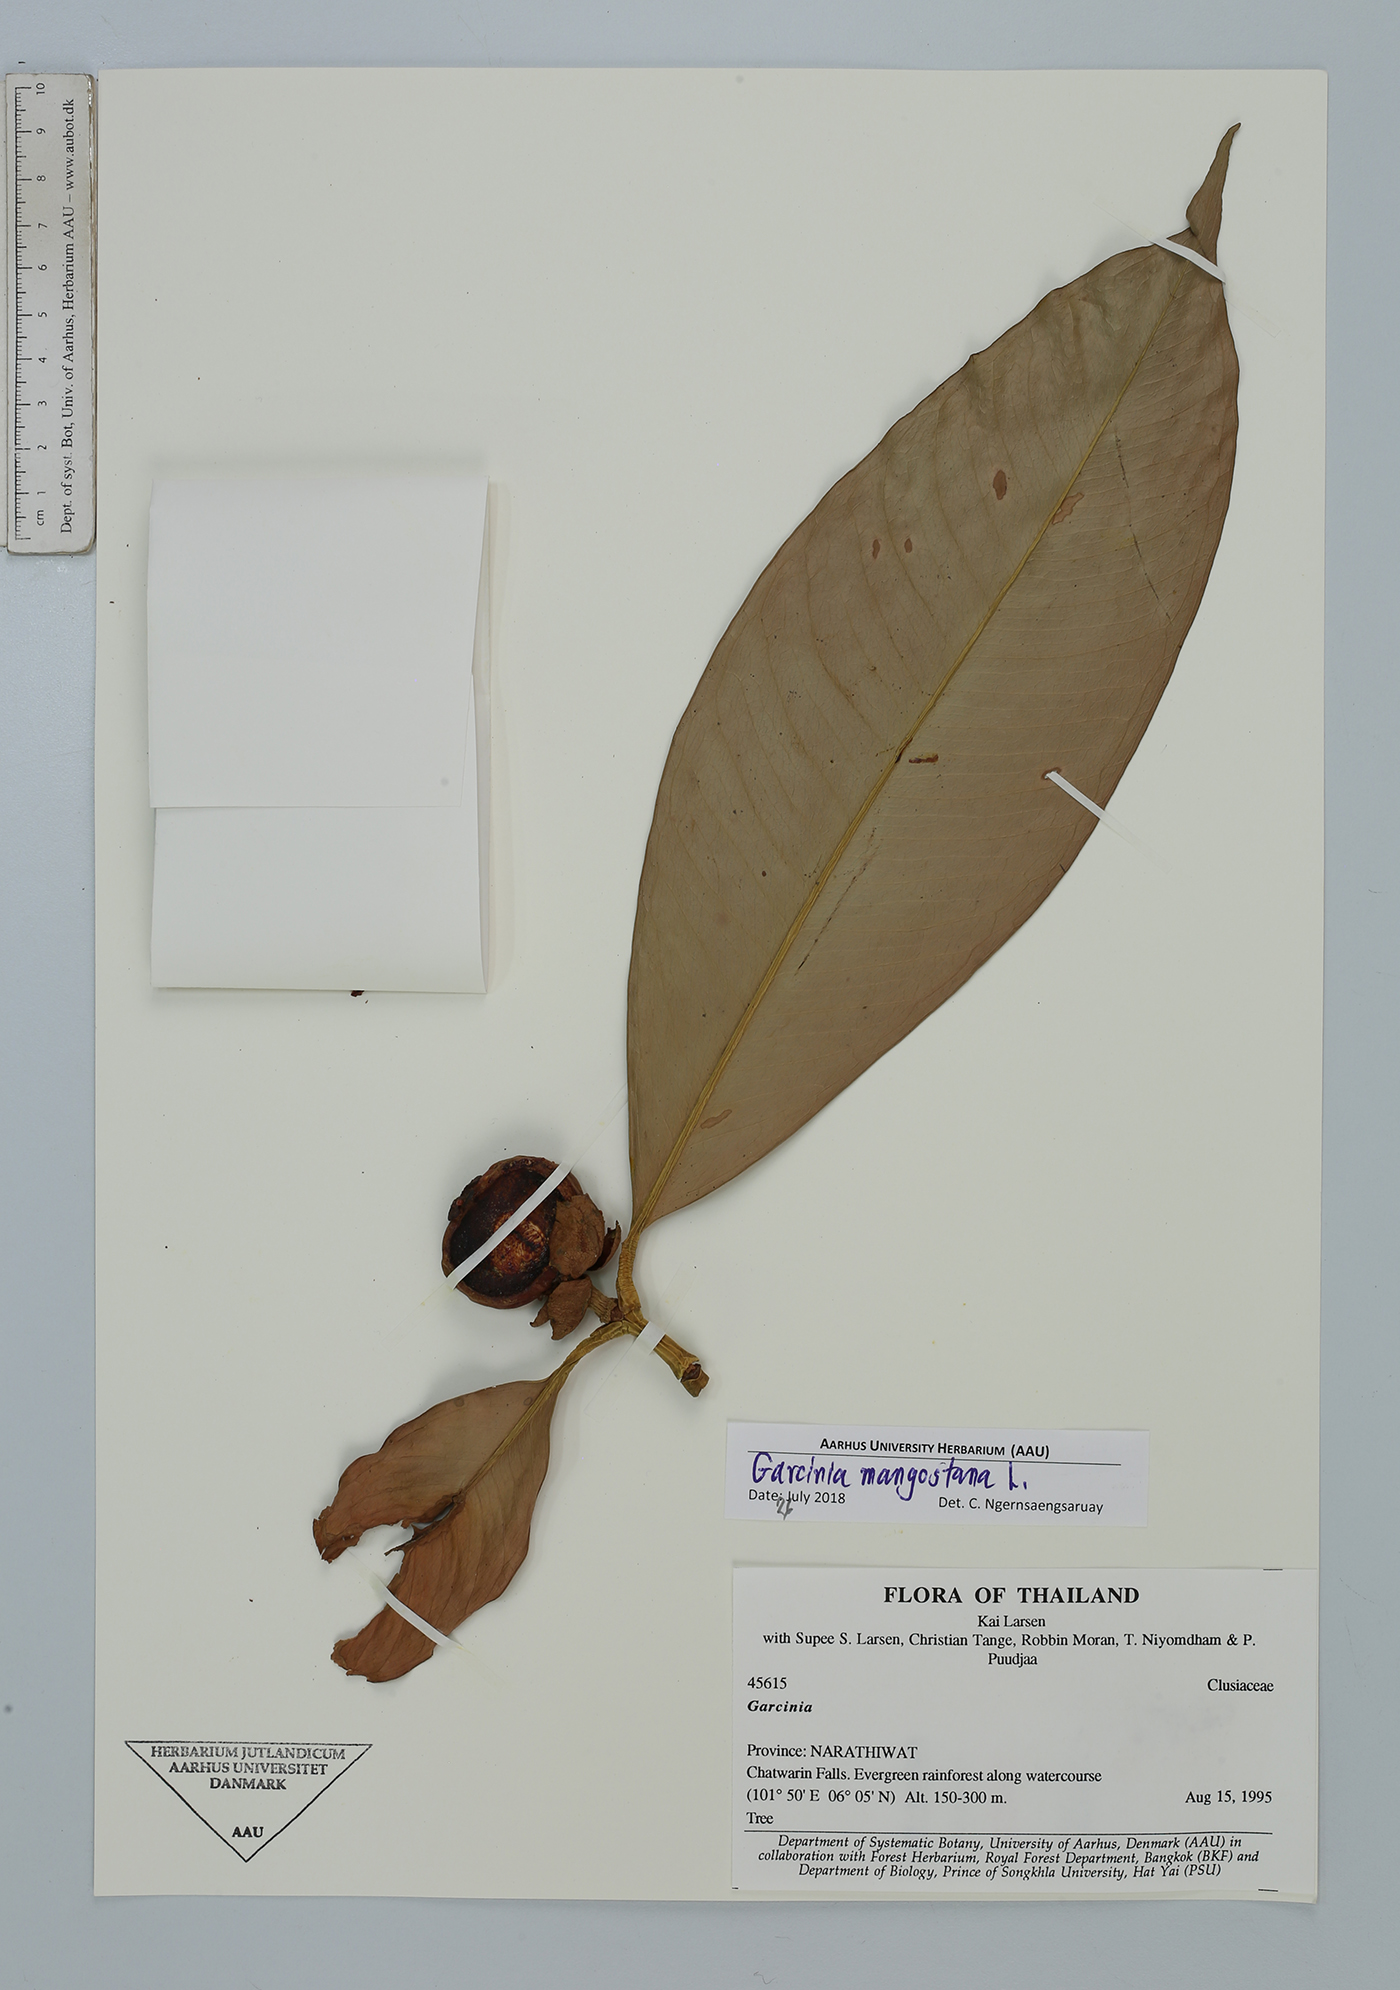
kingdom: Plantae
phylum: Tracheophyta
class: Magnoliopsida
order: Malpighiales
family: Clusiaceae
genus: Garcinia
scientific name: Garcinia mangostana
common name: Mangosteen
